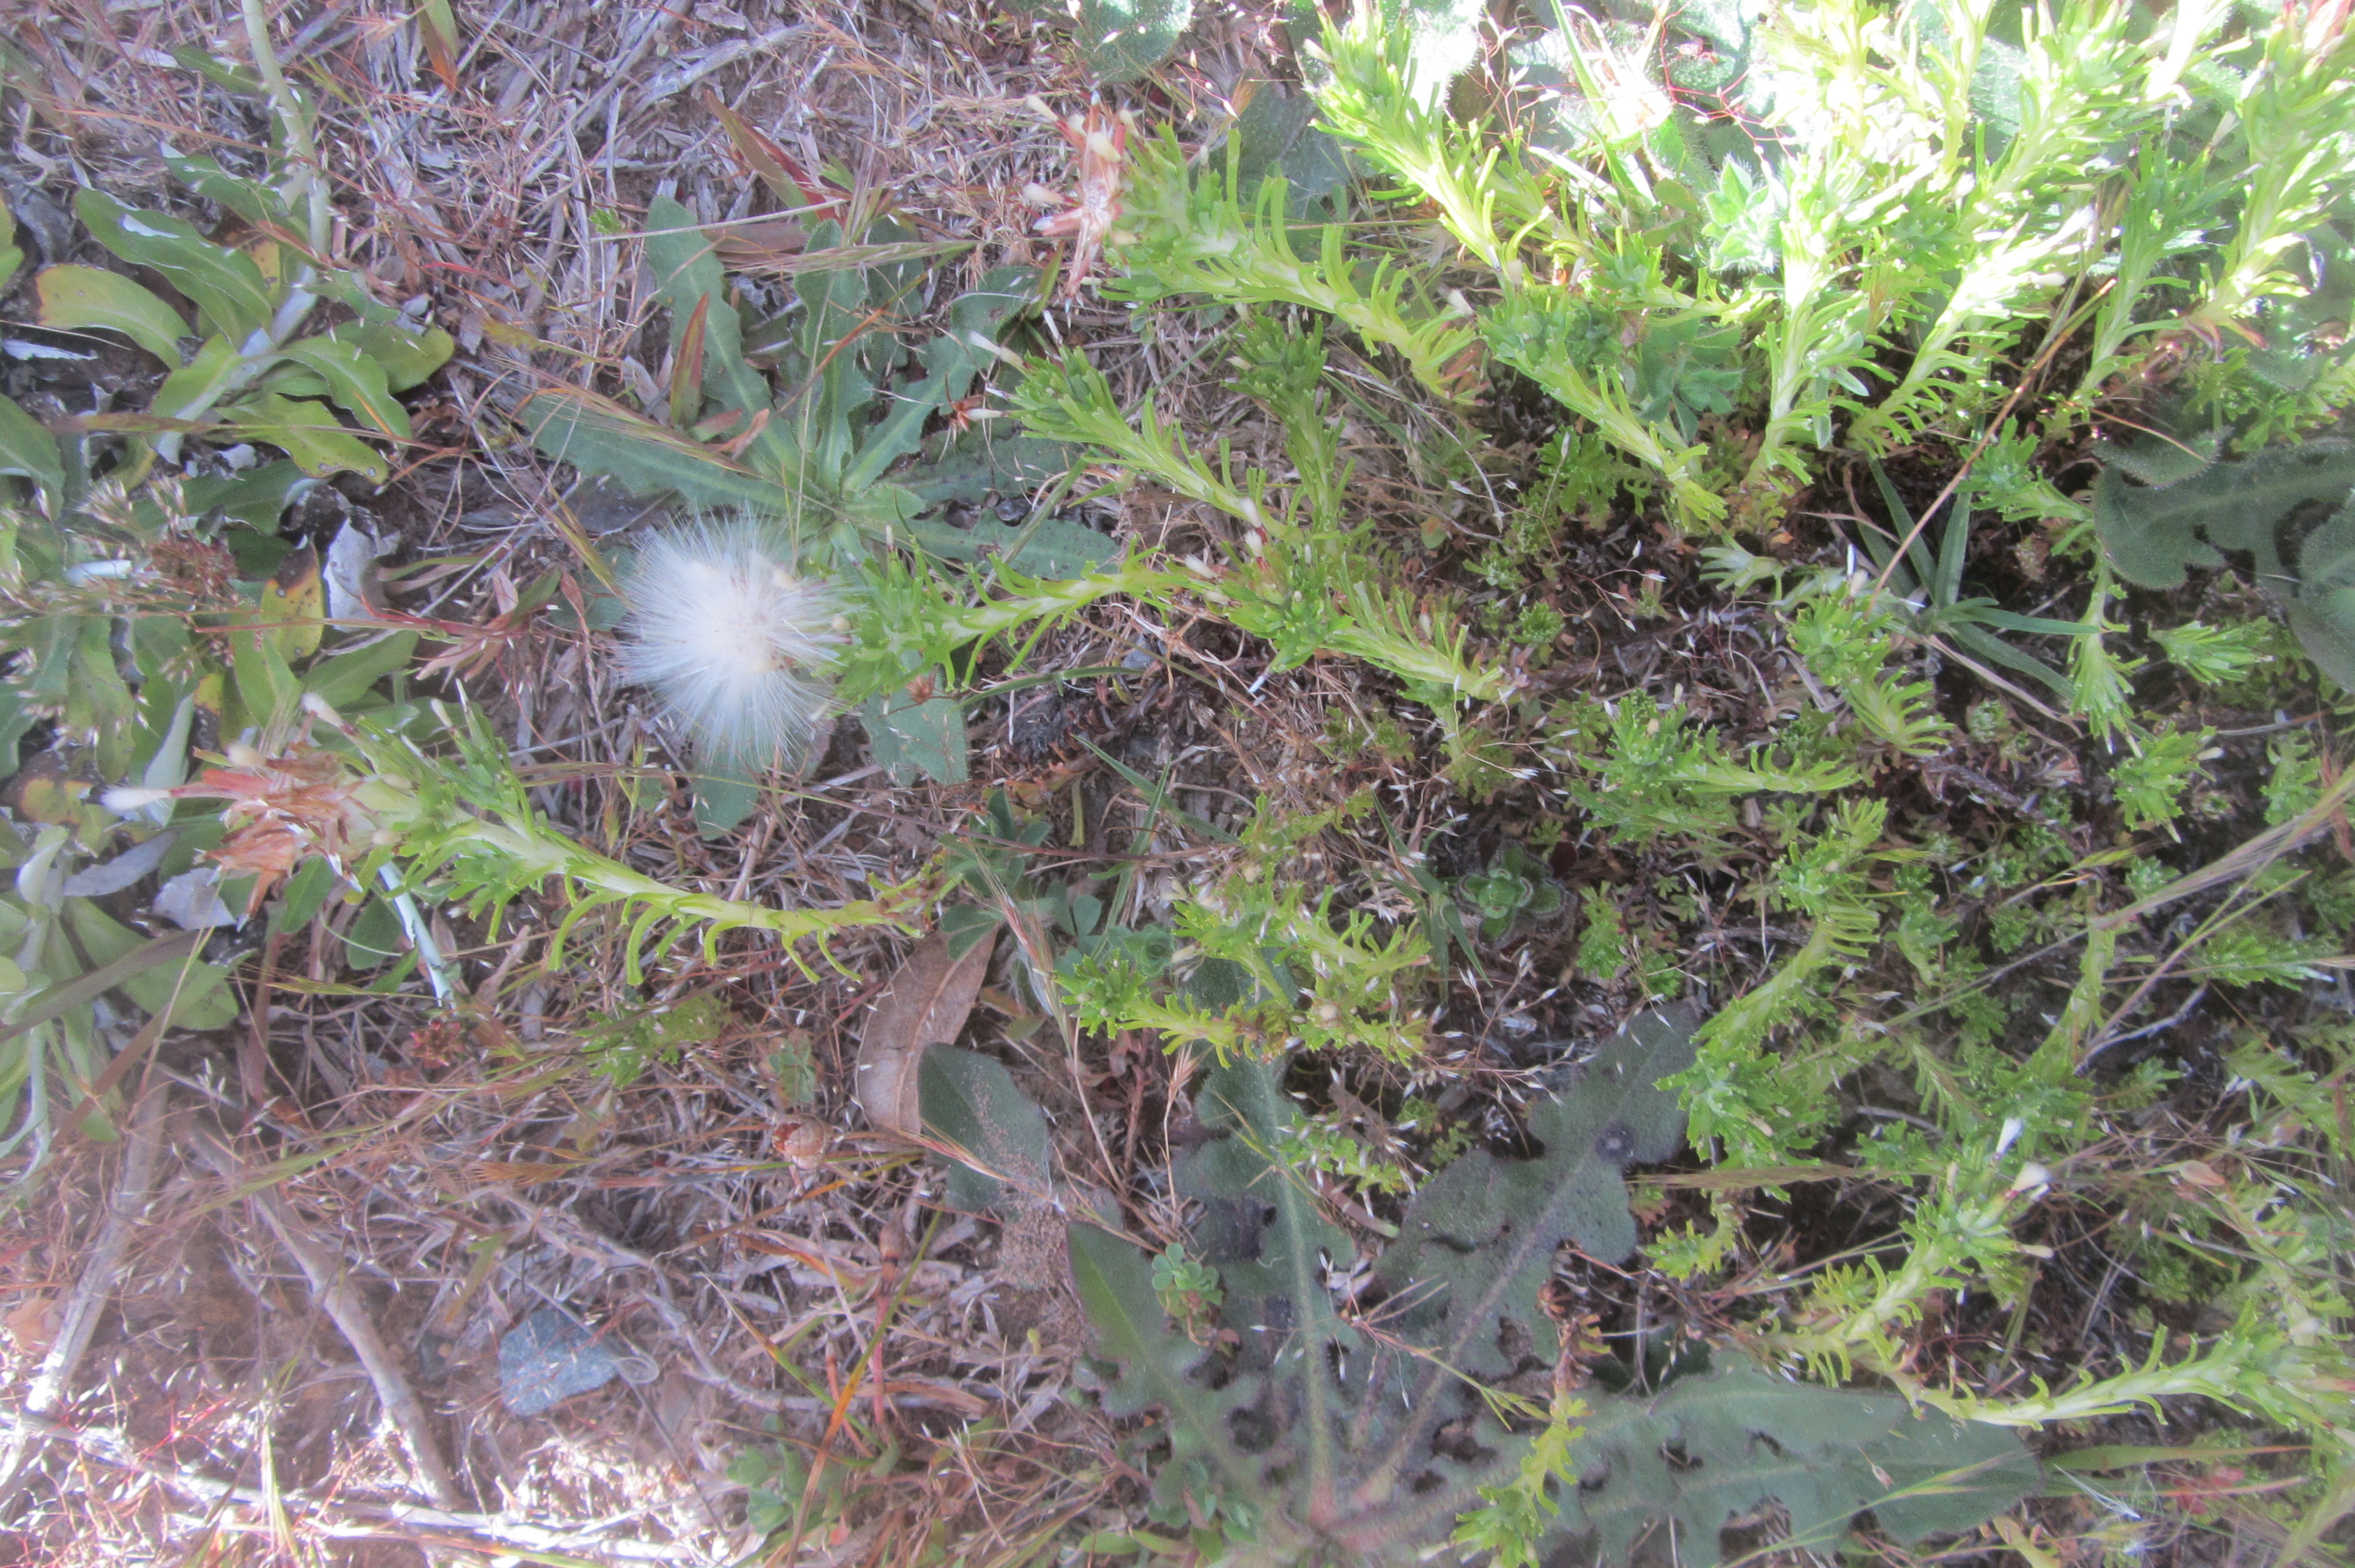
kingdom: Plantae
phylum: Tracheophyta
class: Magnoliopsida
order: Asterales
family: Asteraceae
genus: Facelis
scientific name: Facelis retusa
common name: Annual trampweed
